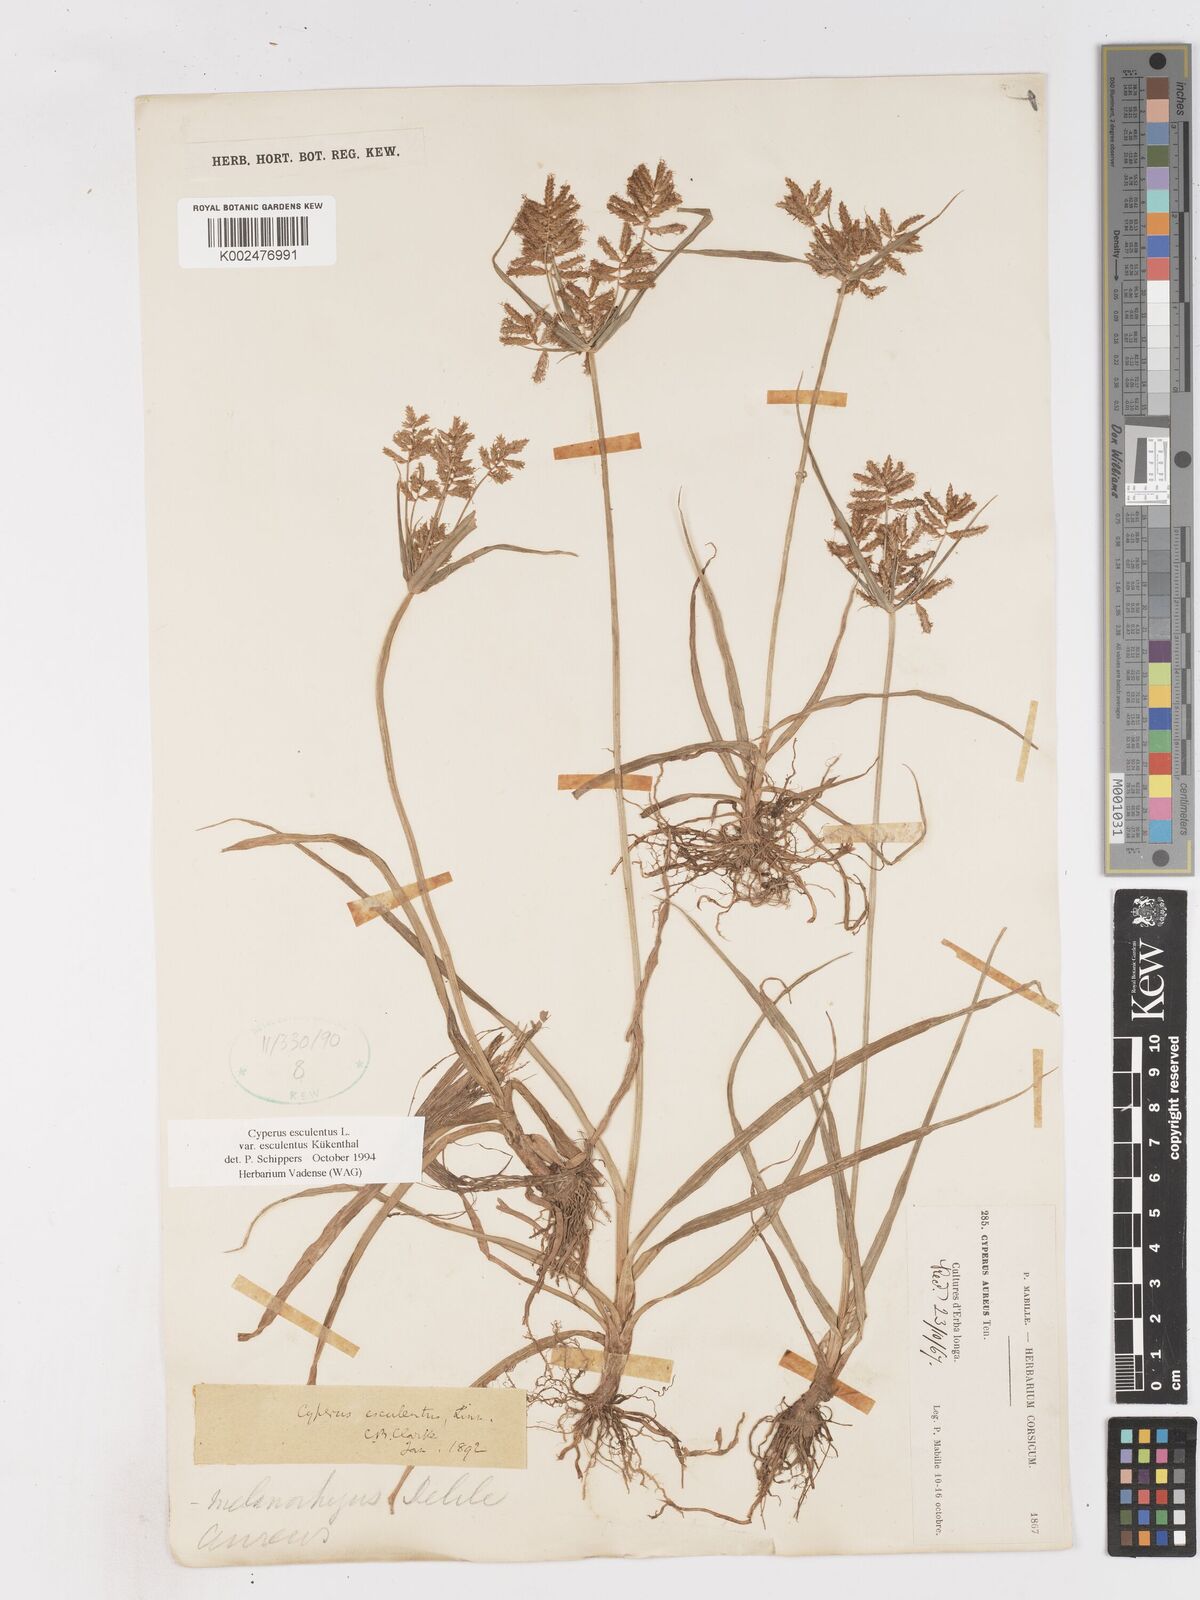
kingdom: Plantae
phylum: Tracheophyta
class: Liliopsida
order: Poales
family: Cyperaceae
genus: Cyperus
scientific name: Cyperus esculentus
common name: Yellow nutsedge
